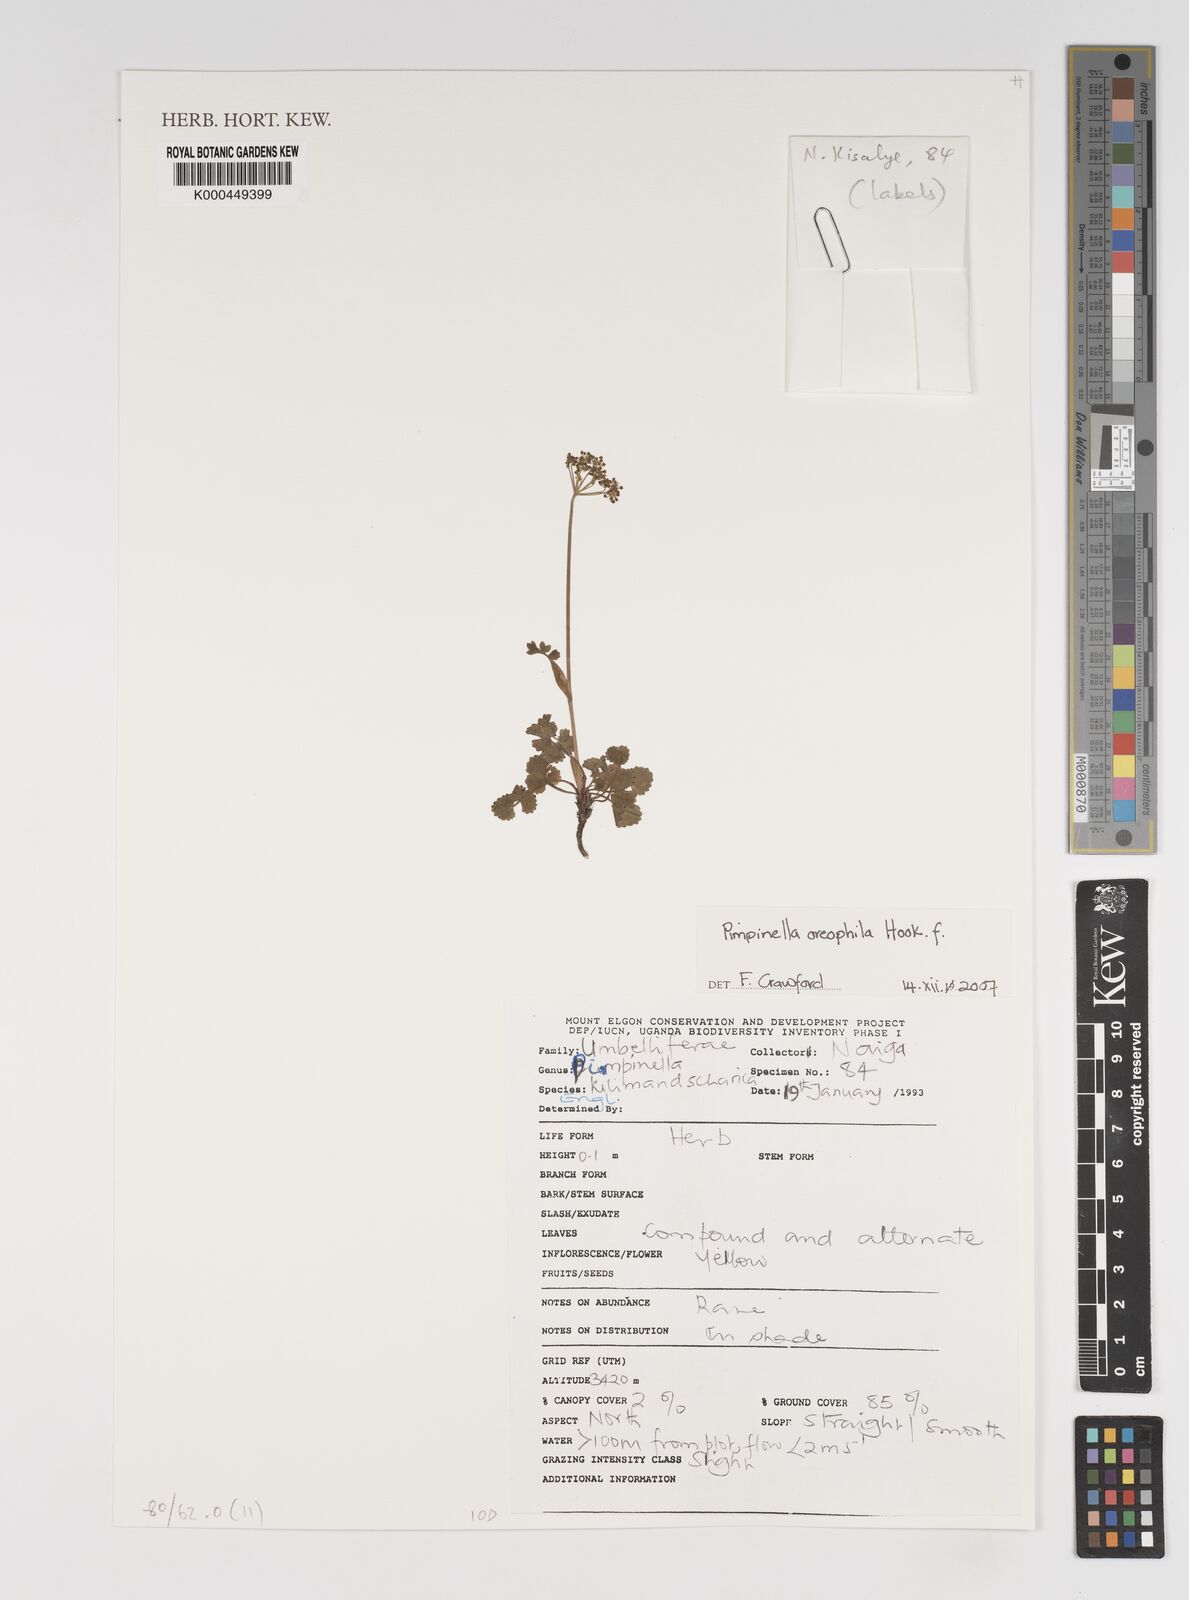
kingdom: Plantae
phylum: Tracheophyta
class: Magnoliopsida
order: Apiales
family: Apiaceae
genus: Pimpinella
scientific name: Pimpinella oreophila
